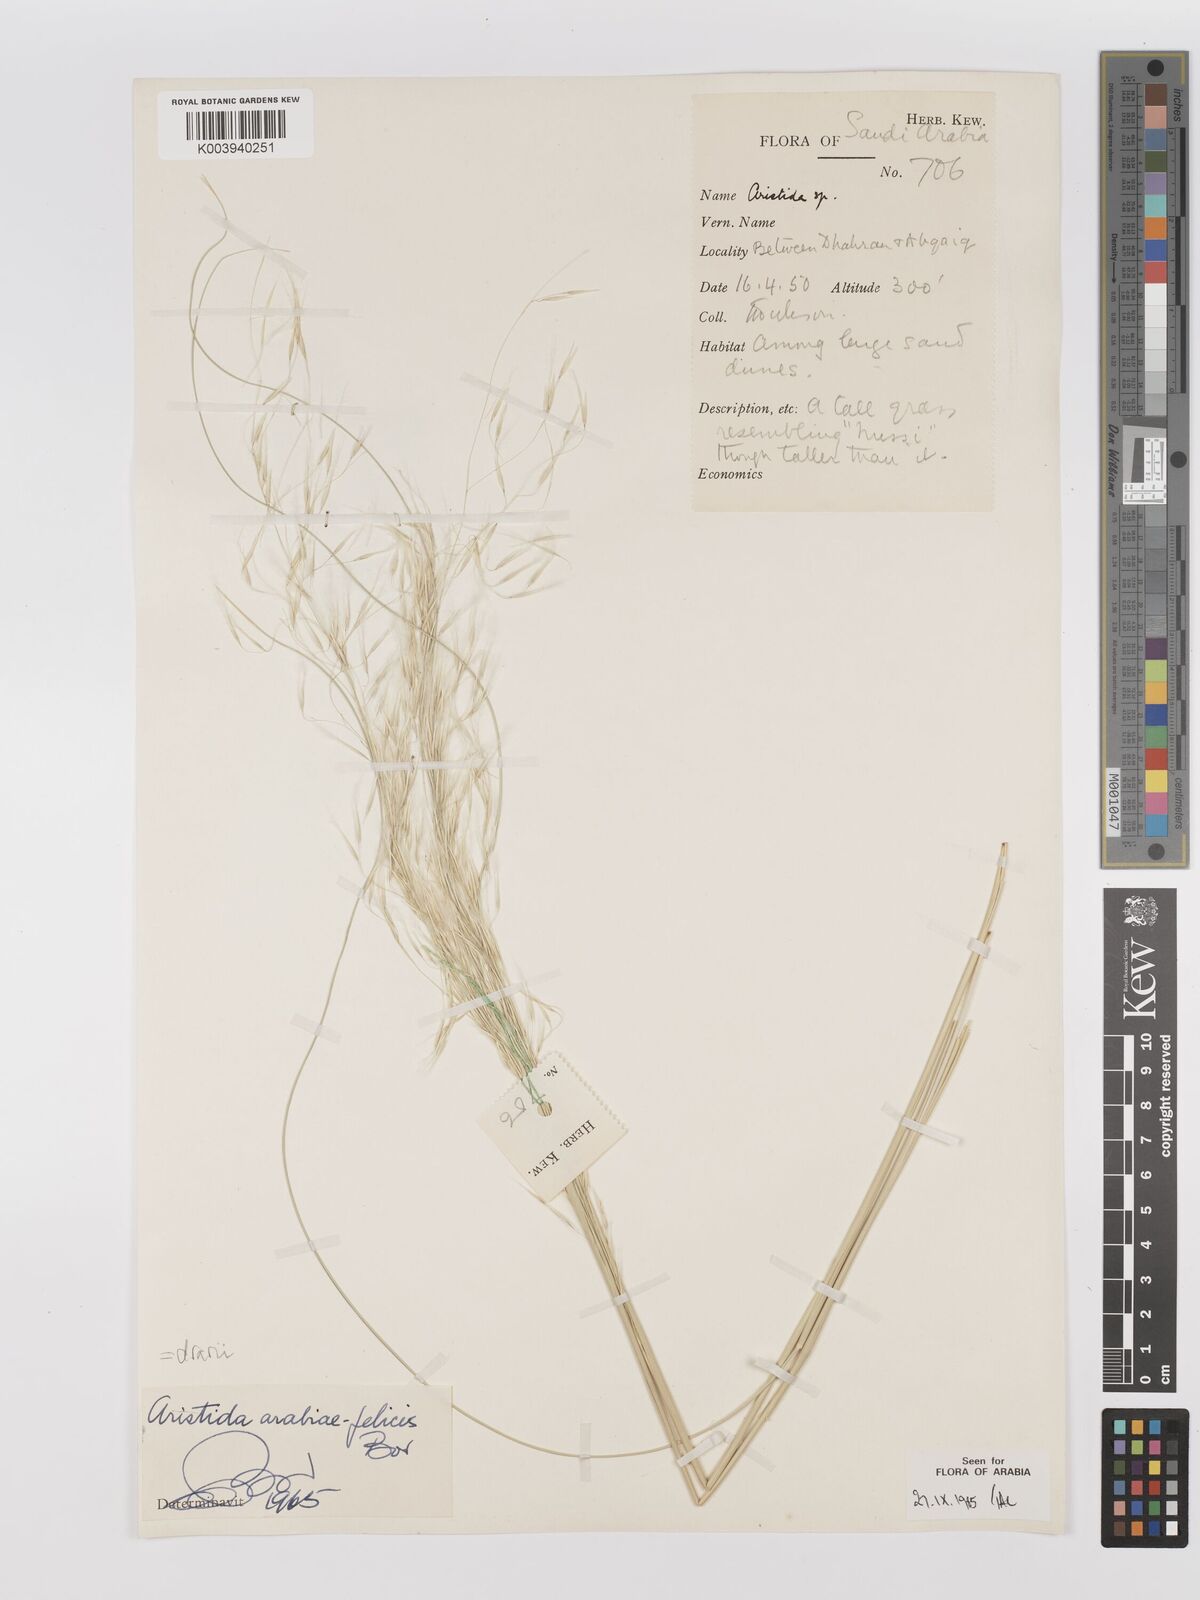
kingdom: Plantae
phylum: Tracheophyta
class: Liliopsida
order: Poales
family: Poaceae
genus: Stipagrostis
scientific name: Stipagrostis drarii
